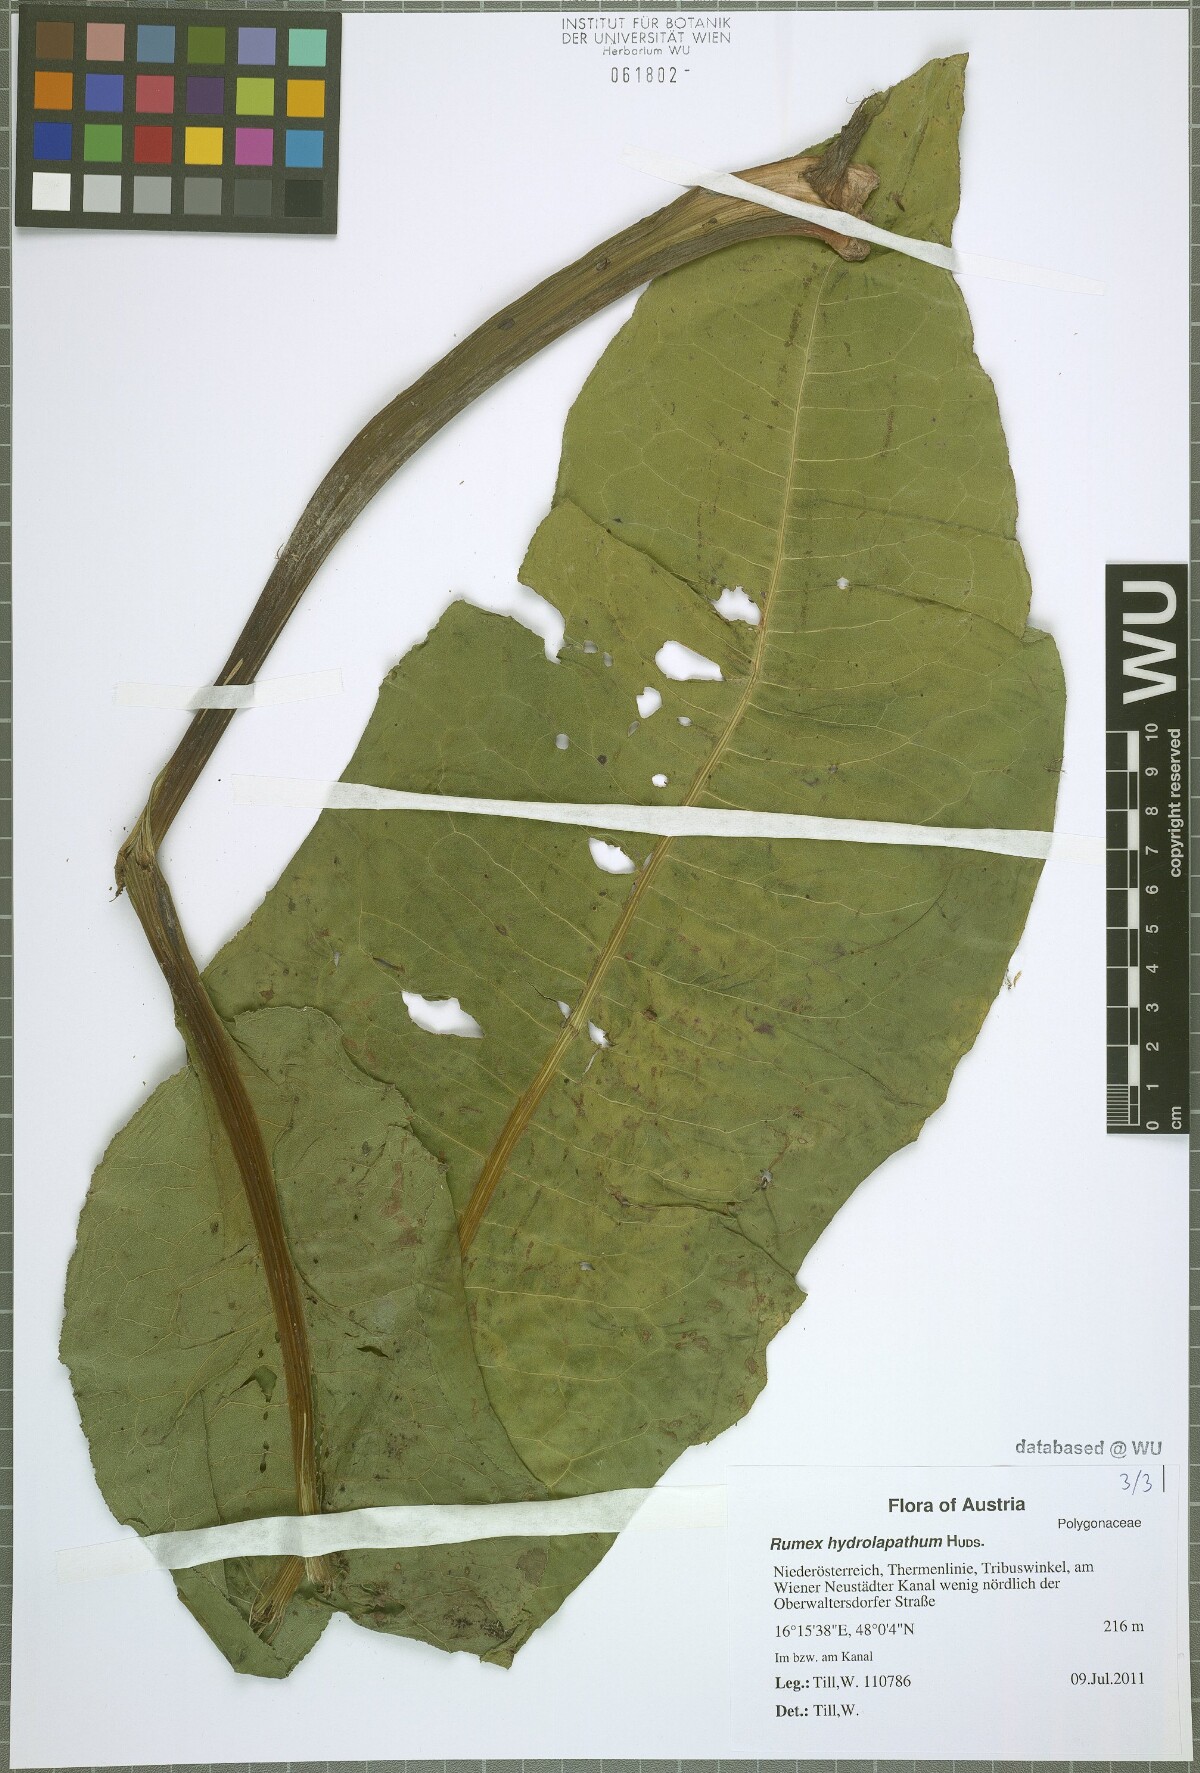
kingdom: Plantae
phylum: Tracheophyta
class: Magnoliopsida
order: Caryophyllales
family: Polygonaceae
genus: Rumex
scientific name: Rumex hydrolapathum
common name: Water dock
